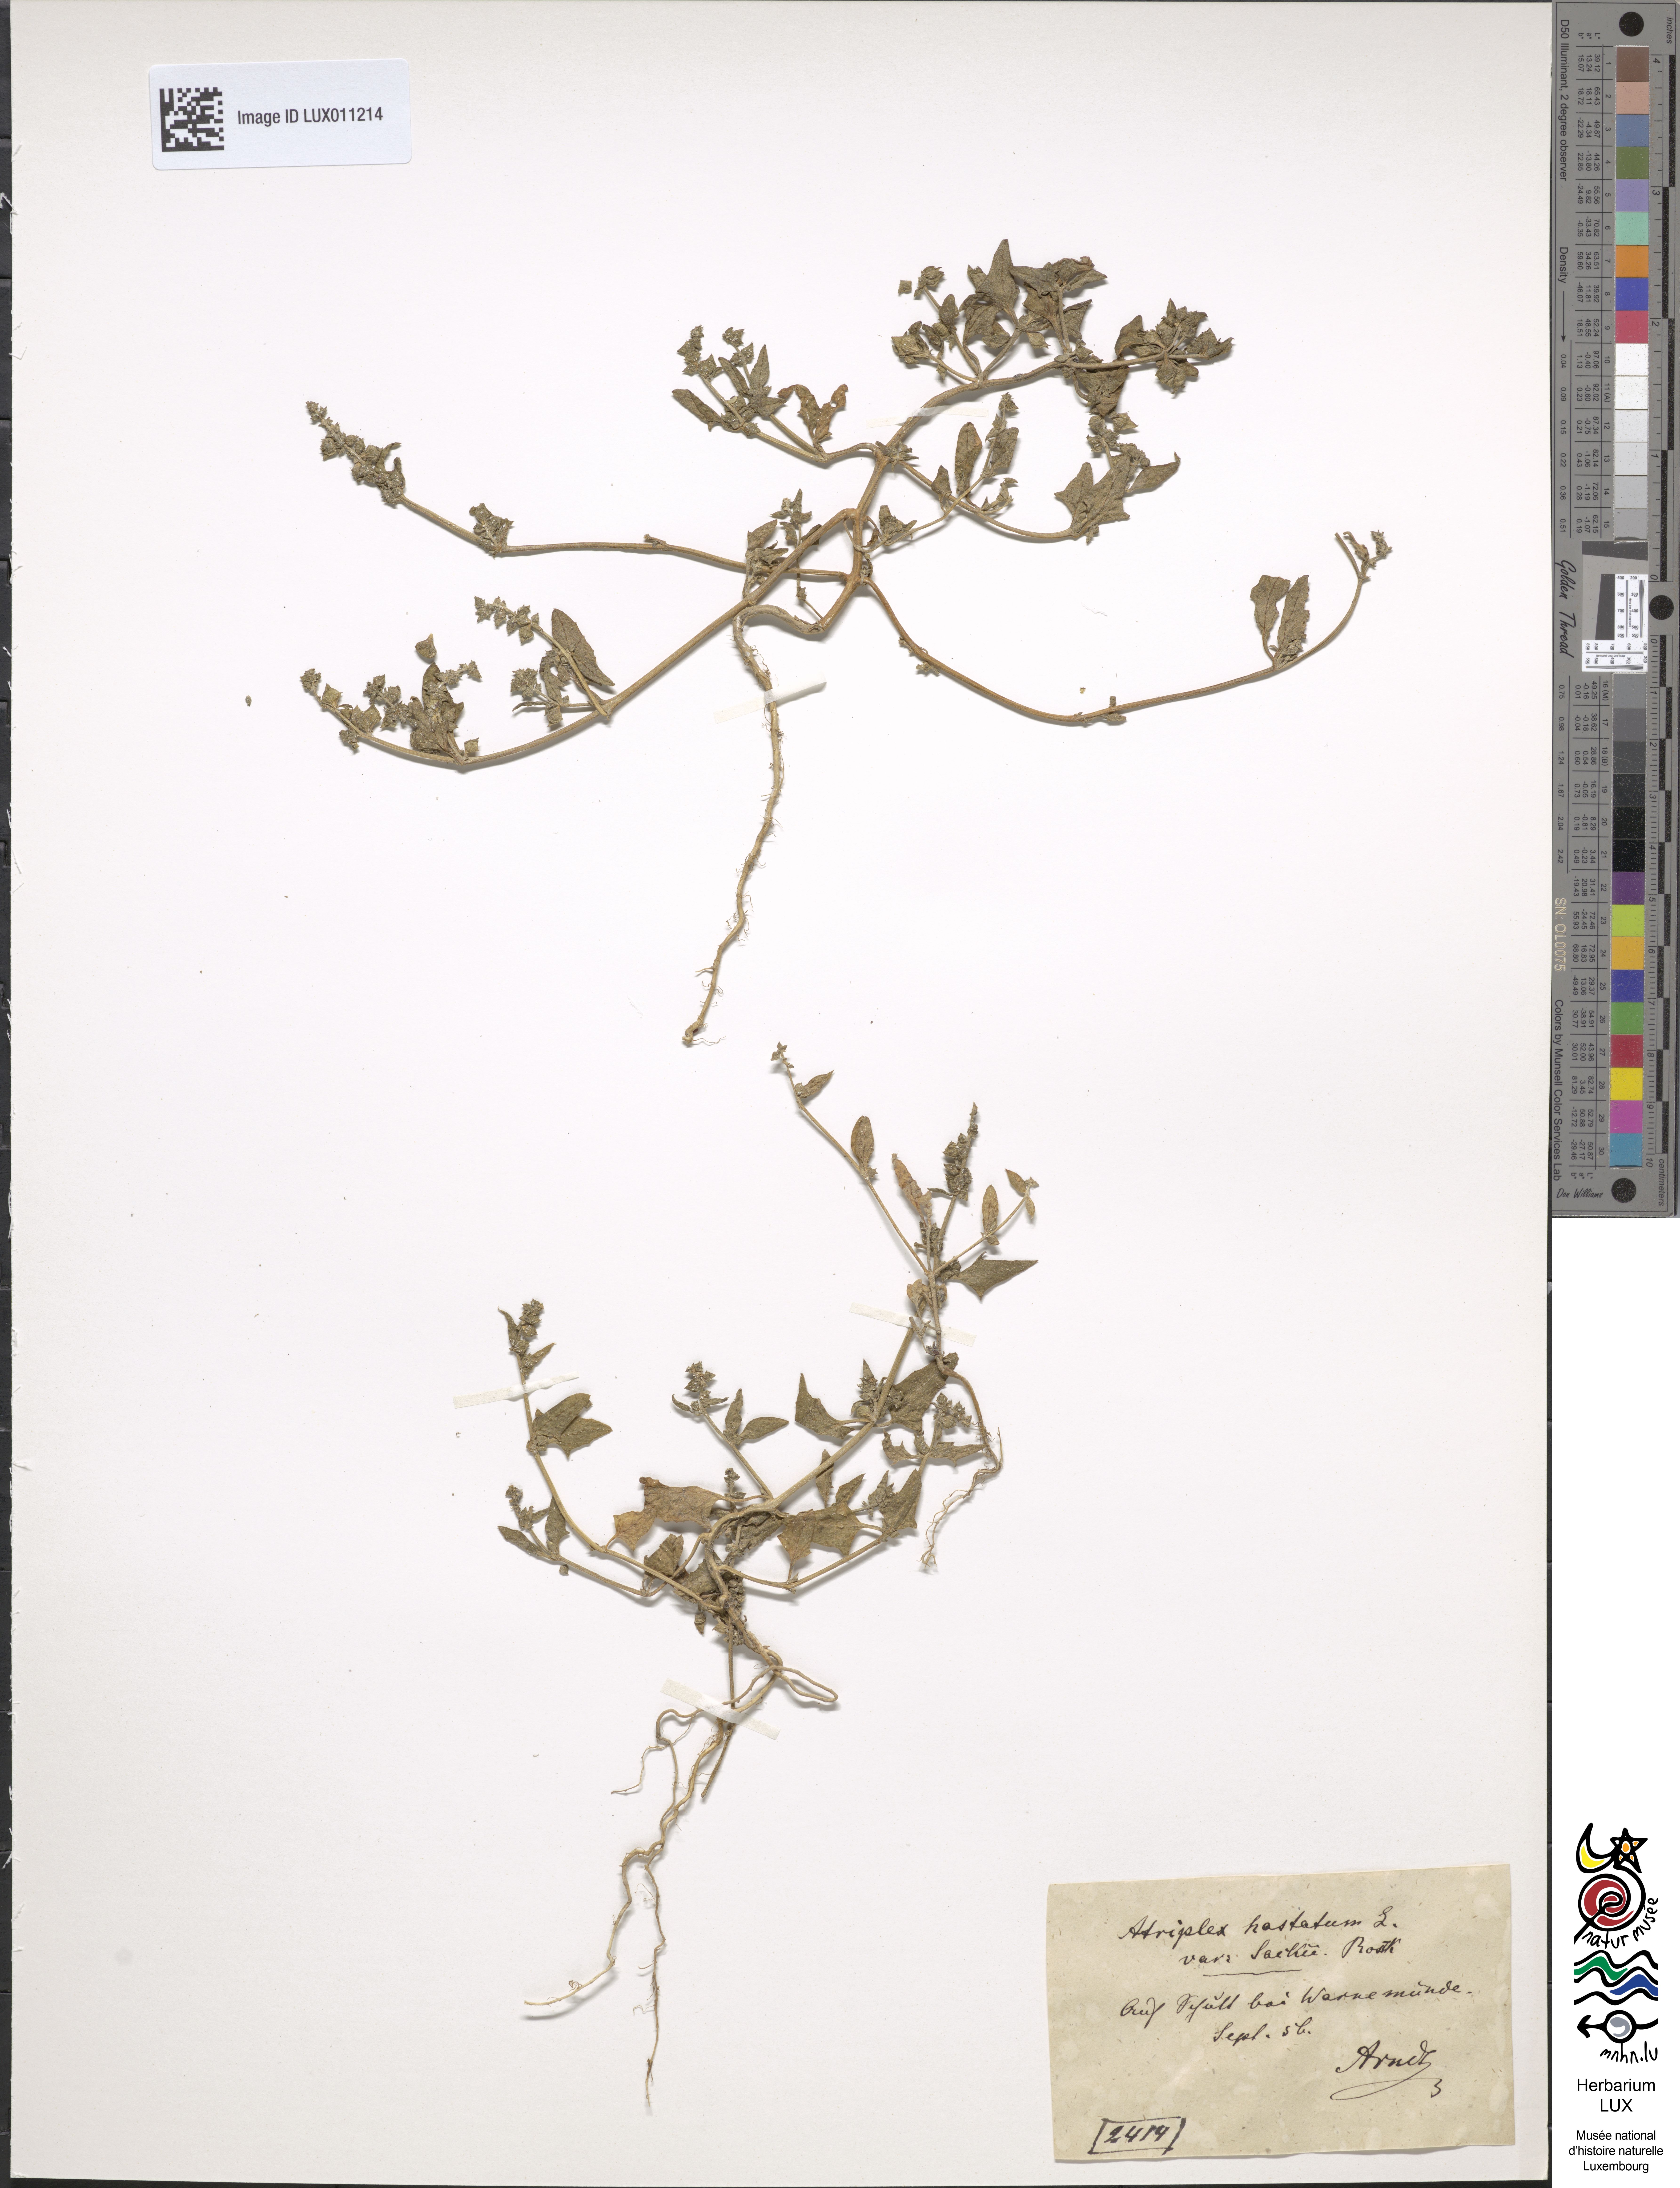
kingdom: Plantae
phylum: Tracheophyta
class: Magnoliopsida
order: Caryophyllales
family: Amaranthaceae
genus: Atriplex
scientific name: Atriplex
